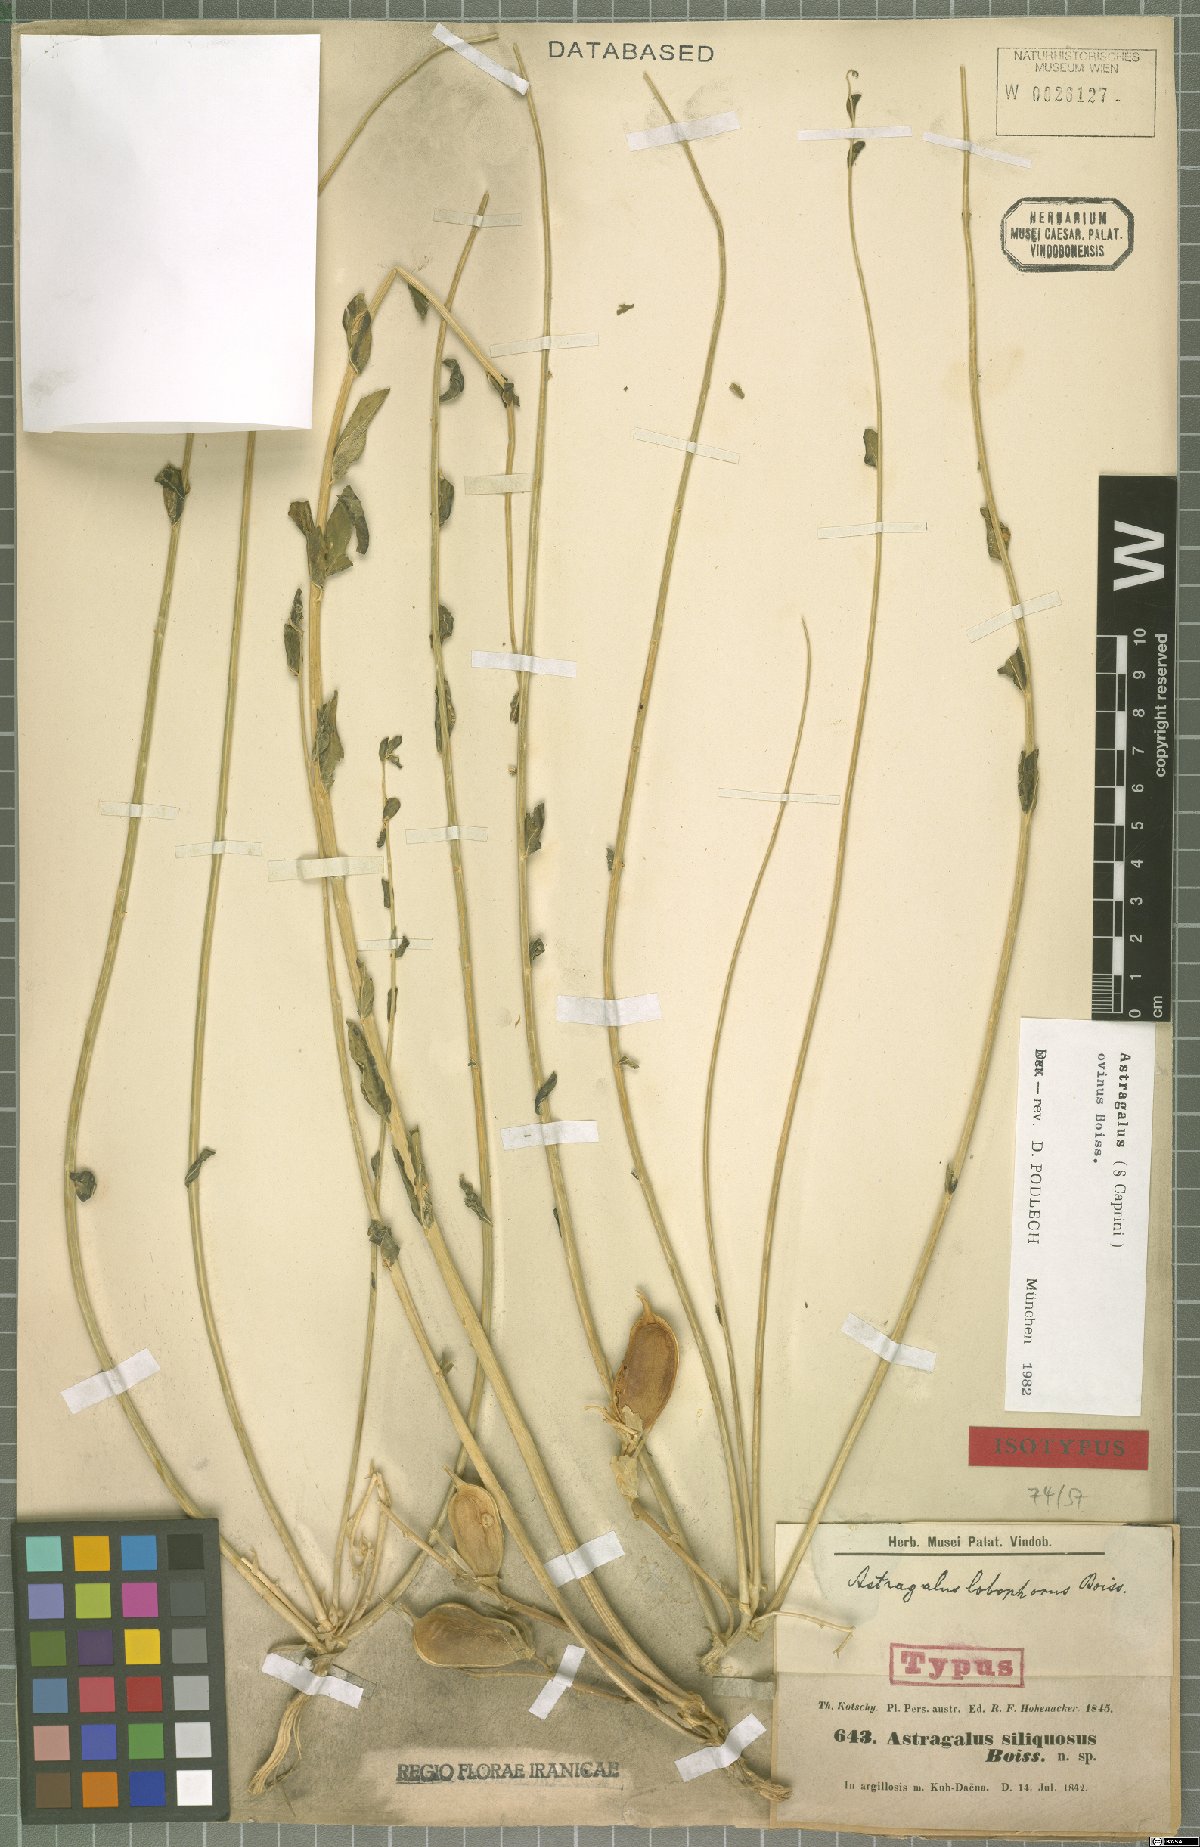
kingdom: Plantae
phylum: Tracheophyta
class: Magnoliopsida
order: Fabales
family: Fabaceae
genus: Astragalus
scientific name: Astragalus ovinus
